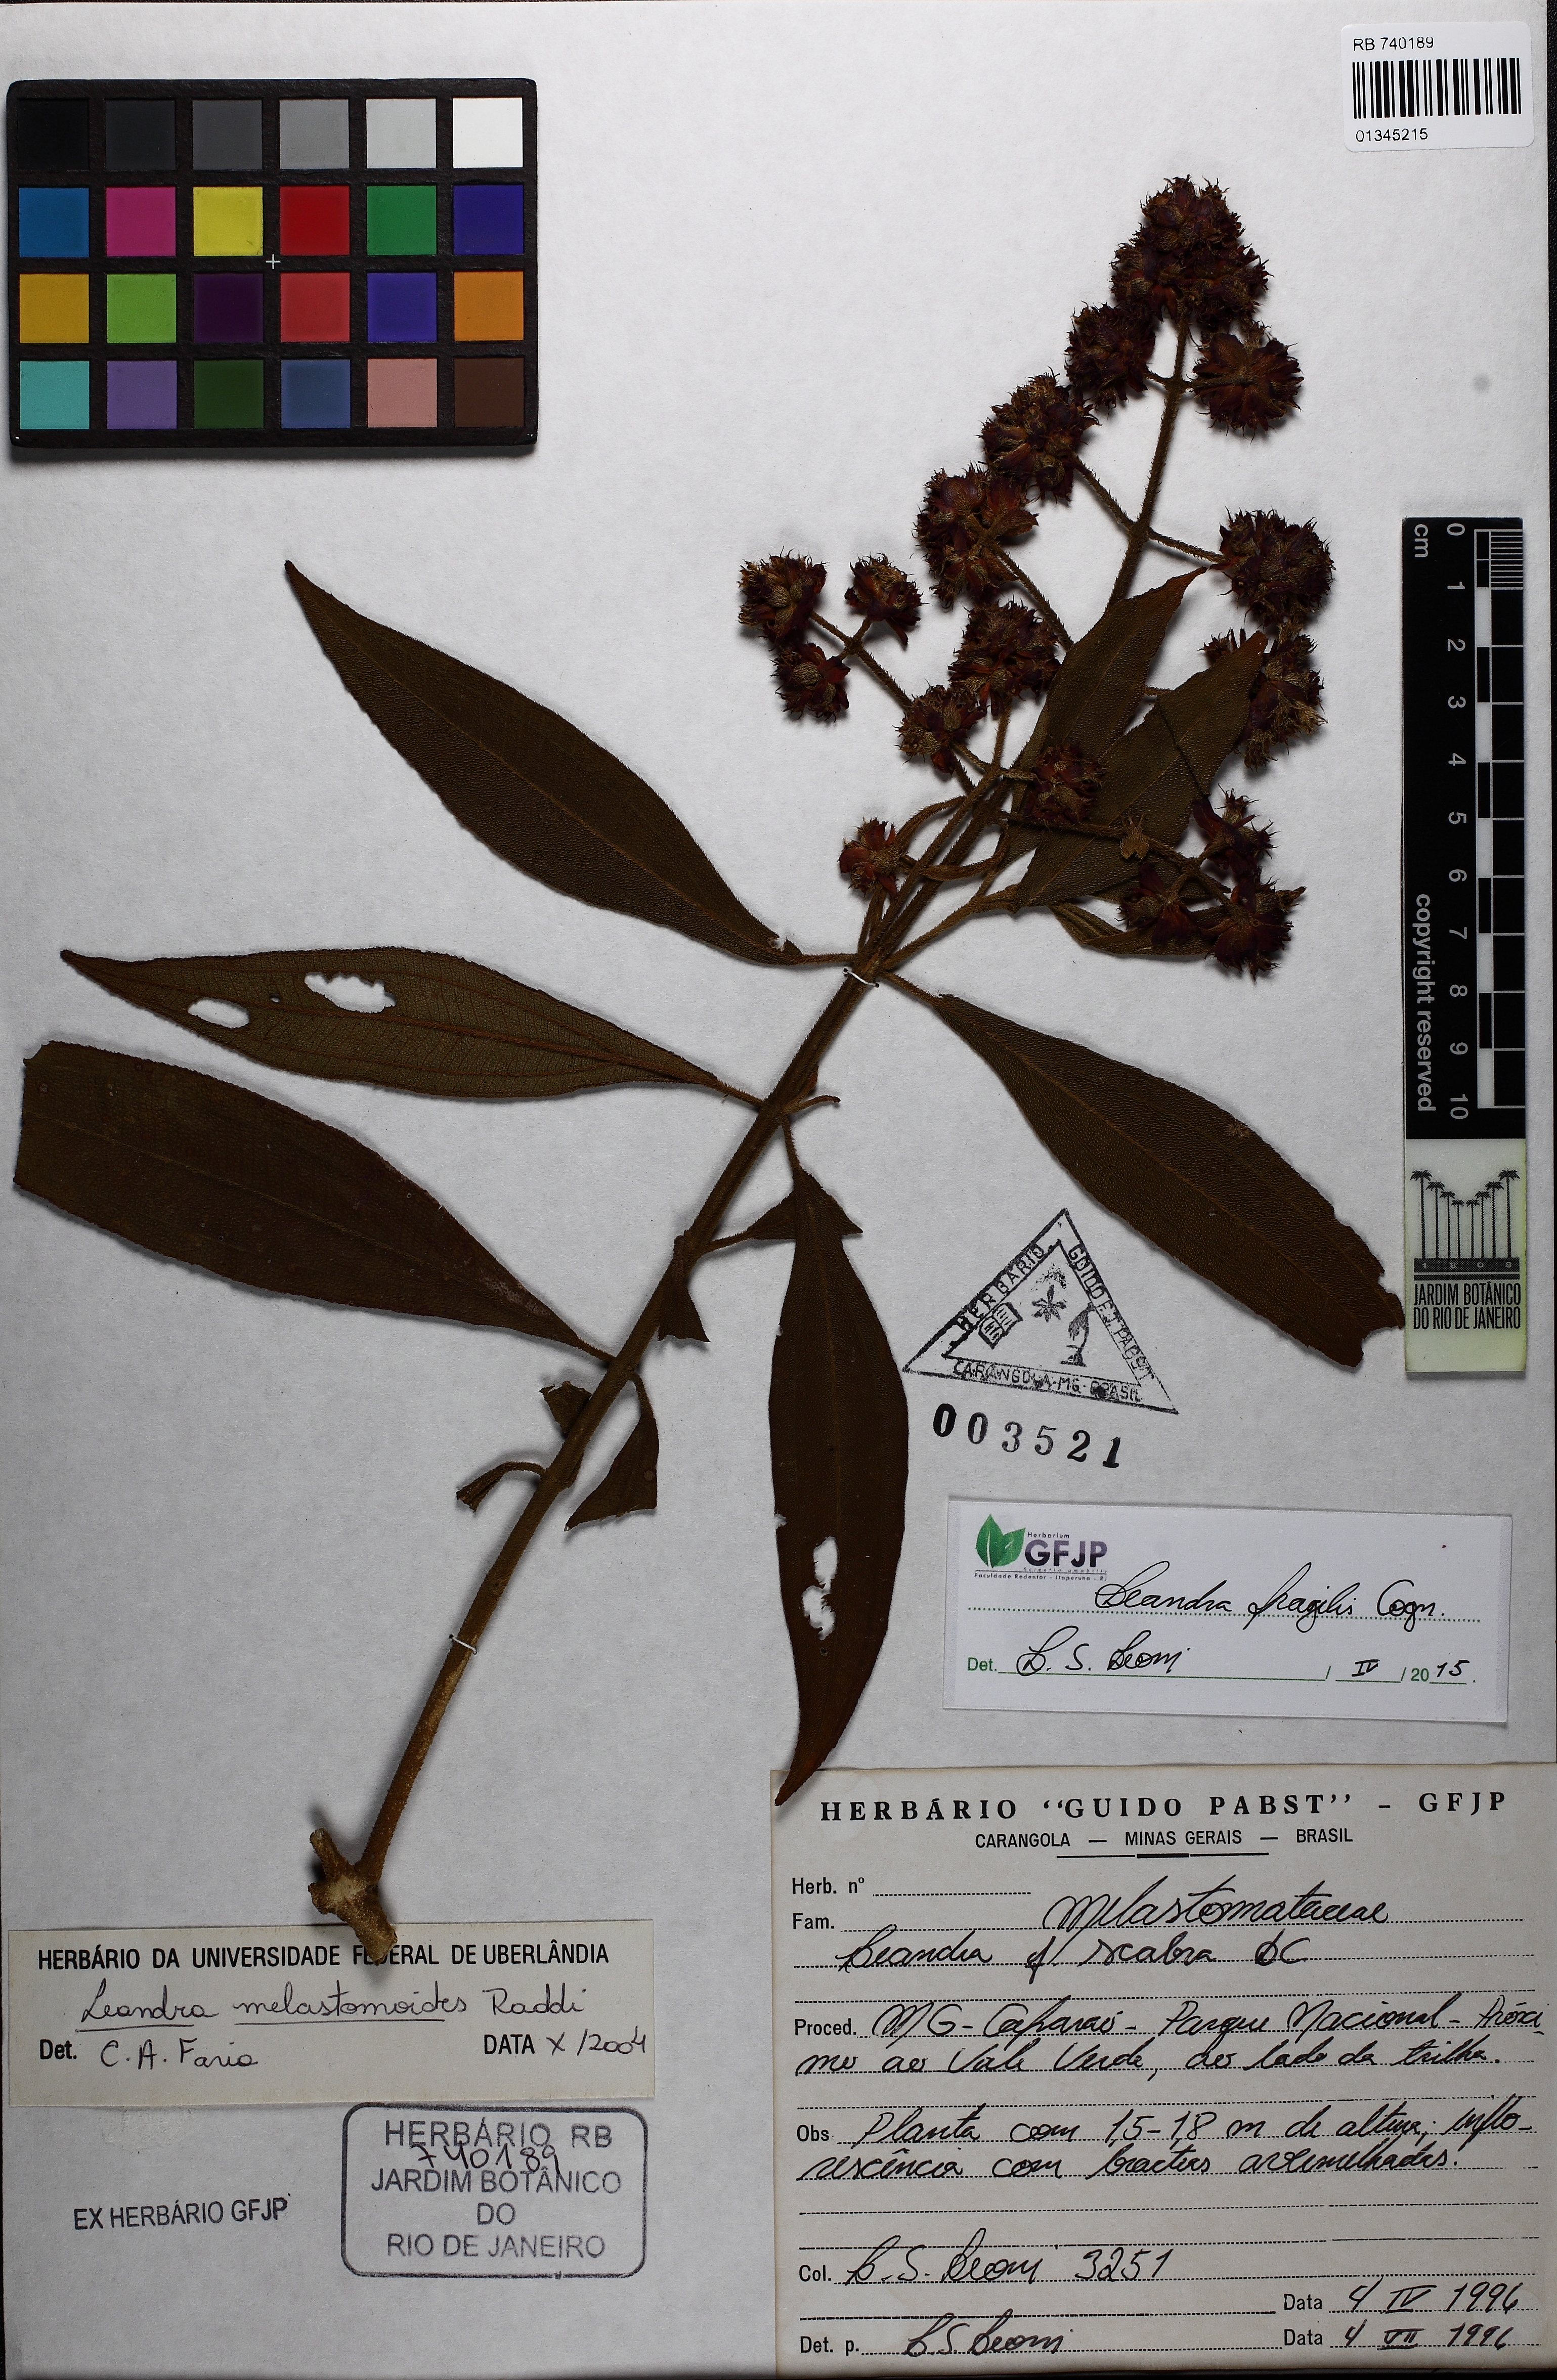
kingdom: Plantae
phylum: Tracheophyta
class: Magnoliopsida
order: Myrtales
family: Melastomataceae
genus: Miconia
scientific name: Miconia melastomoides
